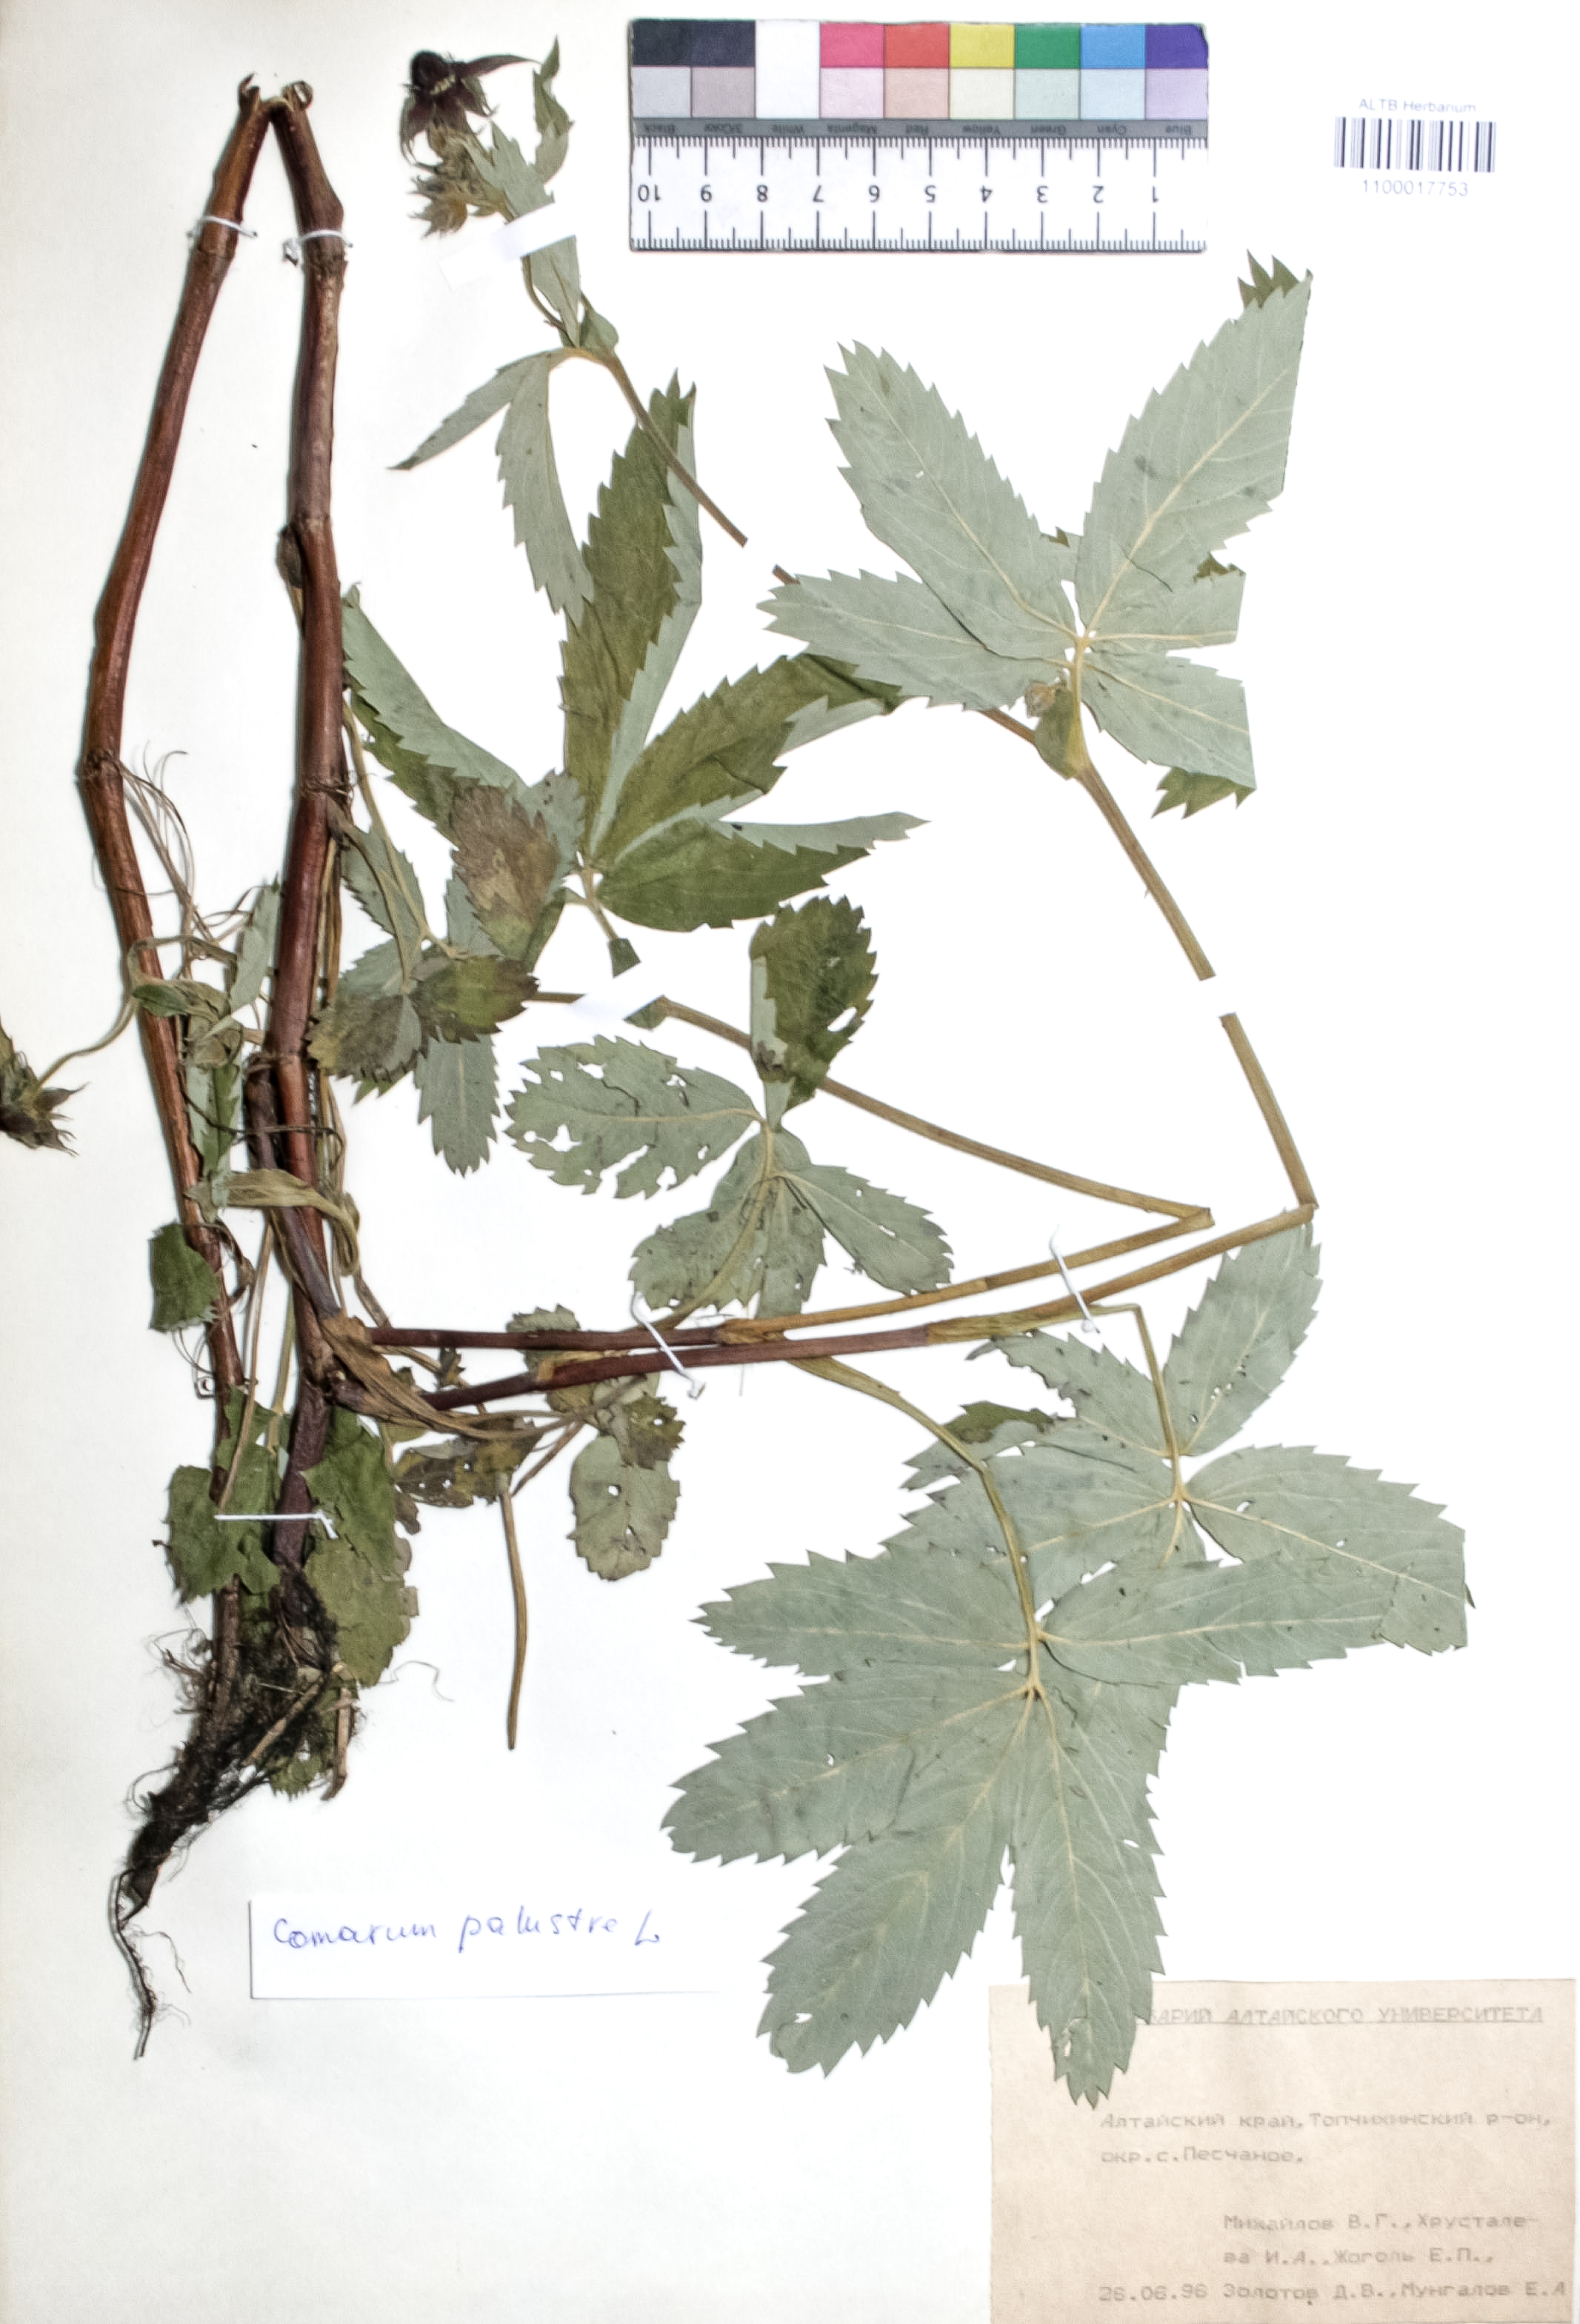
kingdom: Plantae
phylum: Tracheophyta
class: Magnoliopsida
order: Rosales
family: Rosaceae
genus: Comarum
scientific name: Comarum palustre
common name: Marsh cinquefoil
